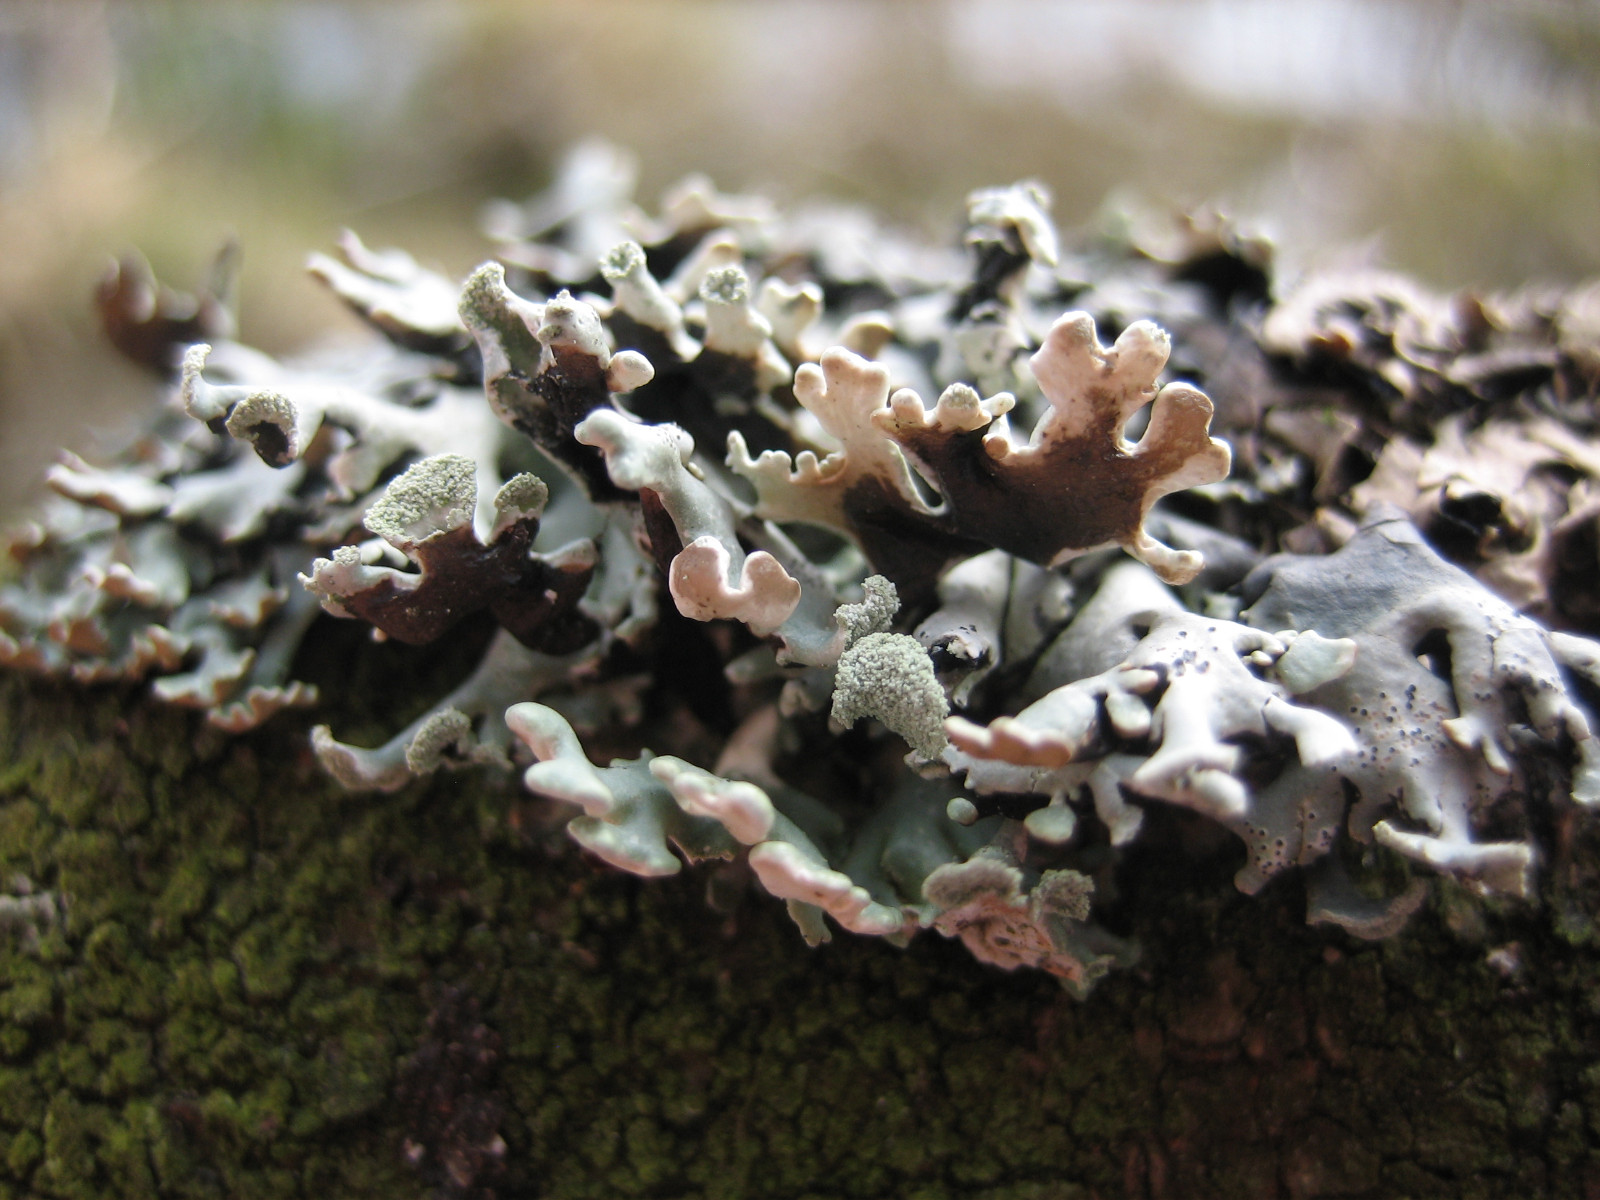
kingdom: Fungi
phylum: Ascomycota
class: Lecanoromycetes
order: Lecanorales
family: Parmeliaceae
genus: Hypogymnia
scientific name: Hypogymnia physodes
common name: almindelig kvistlav
